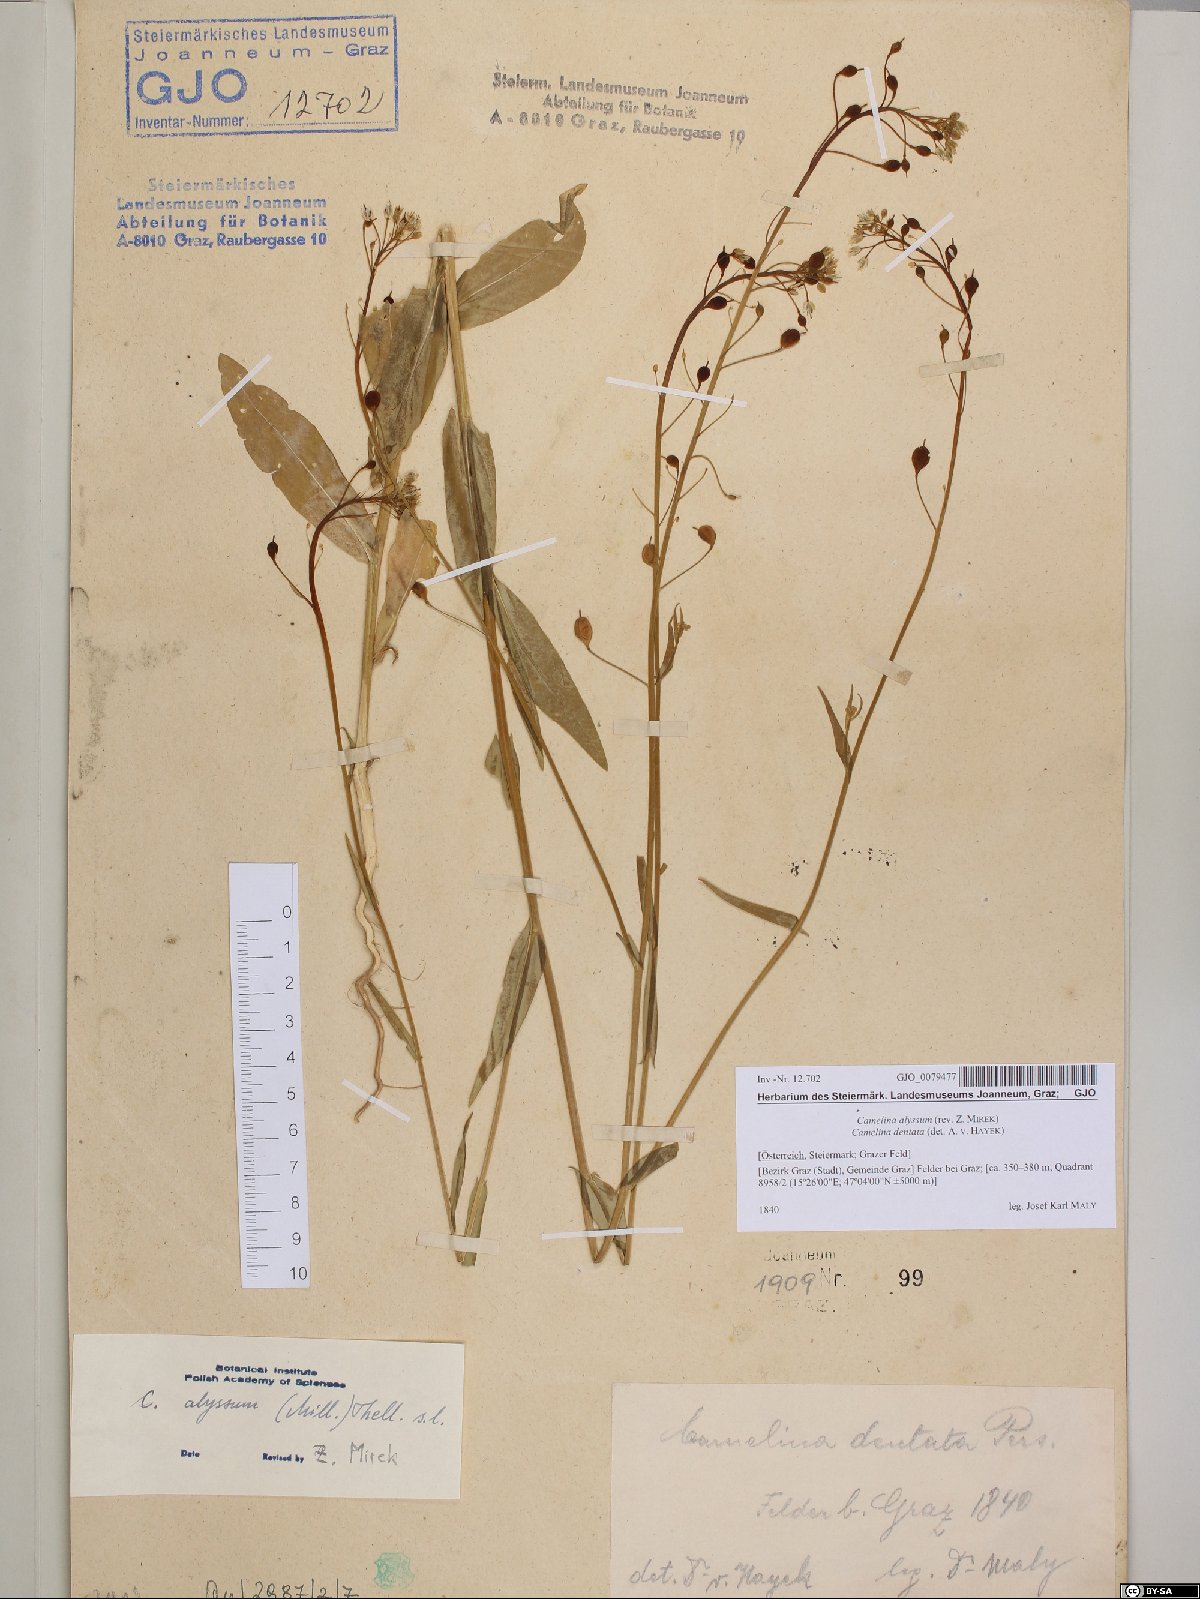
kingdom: Plantae
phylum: Tracheophyta
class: Magnoliopsida
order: Brassicales
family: Brassicaceae
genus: Camelina
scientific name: Camelina alyssum
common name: Gold-of-pleasure
